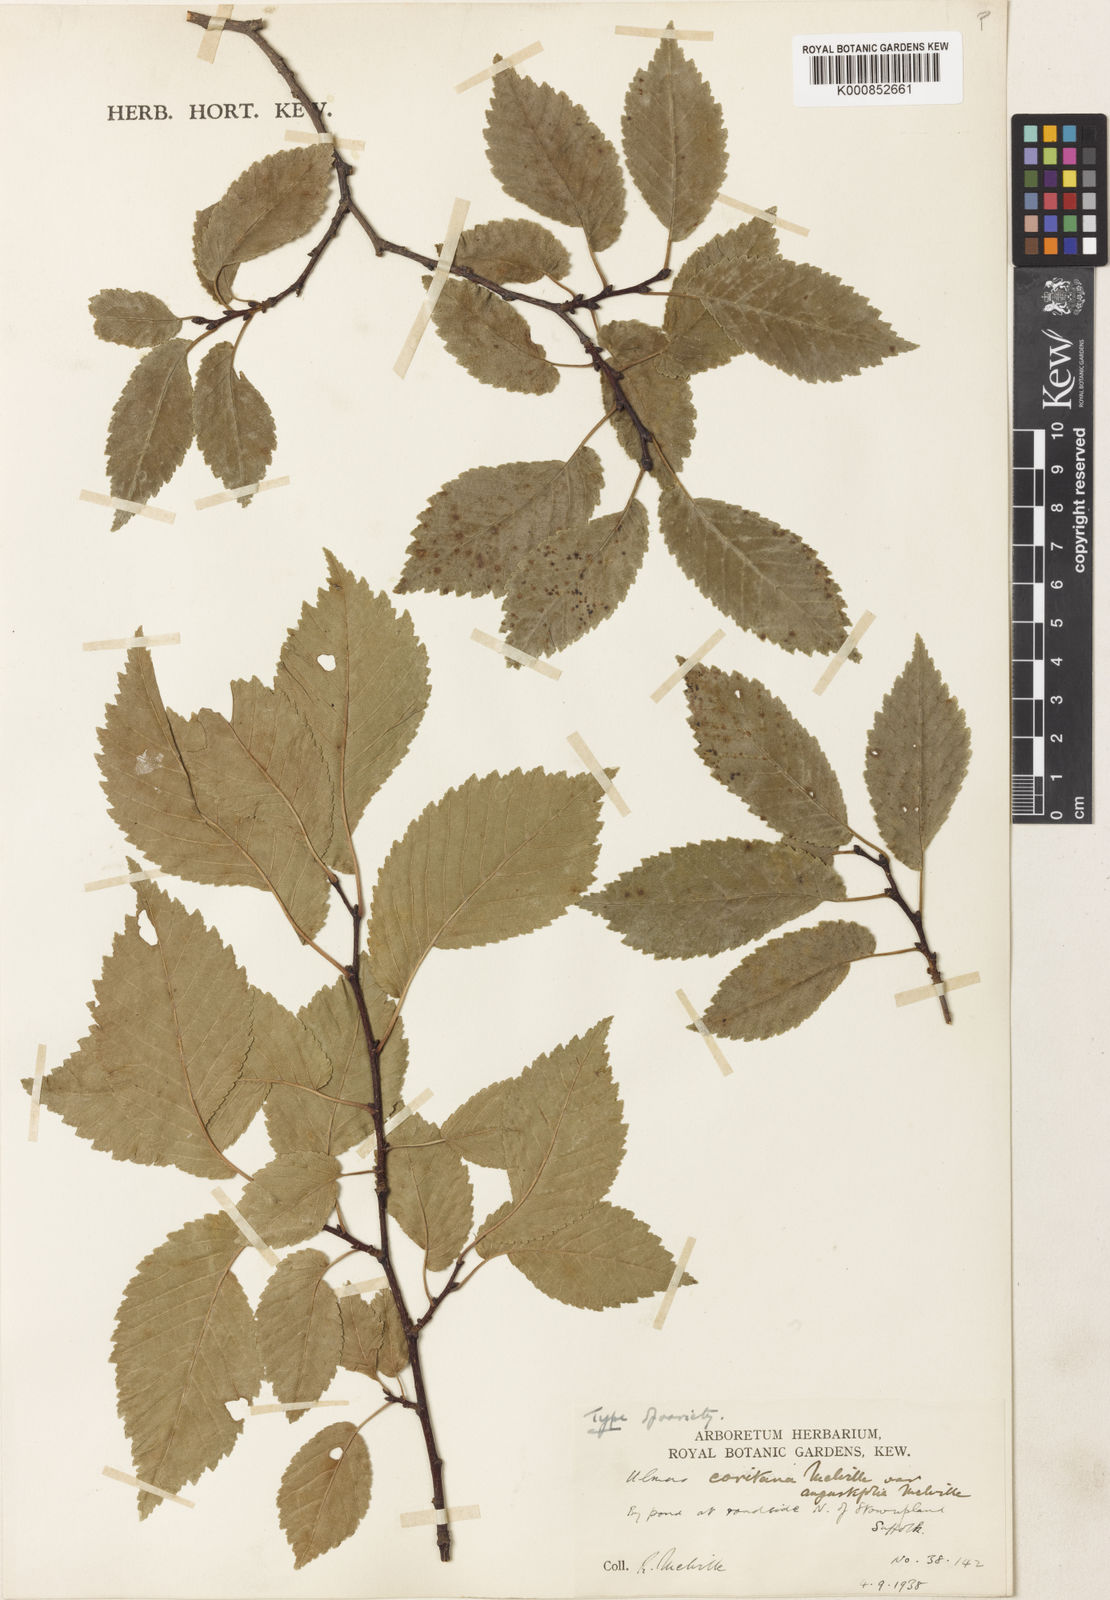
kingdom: Plantae
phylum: Tracheophyta
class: Magnoliopsida
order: Rosales
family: Ulmaceae
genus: Ulmus
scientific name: Ulmus minor
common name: Small-leaved elm
